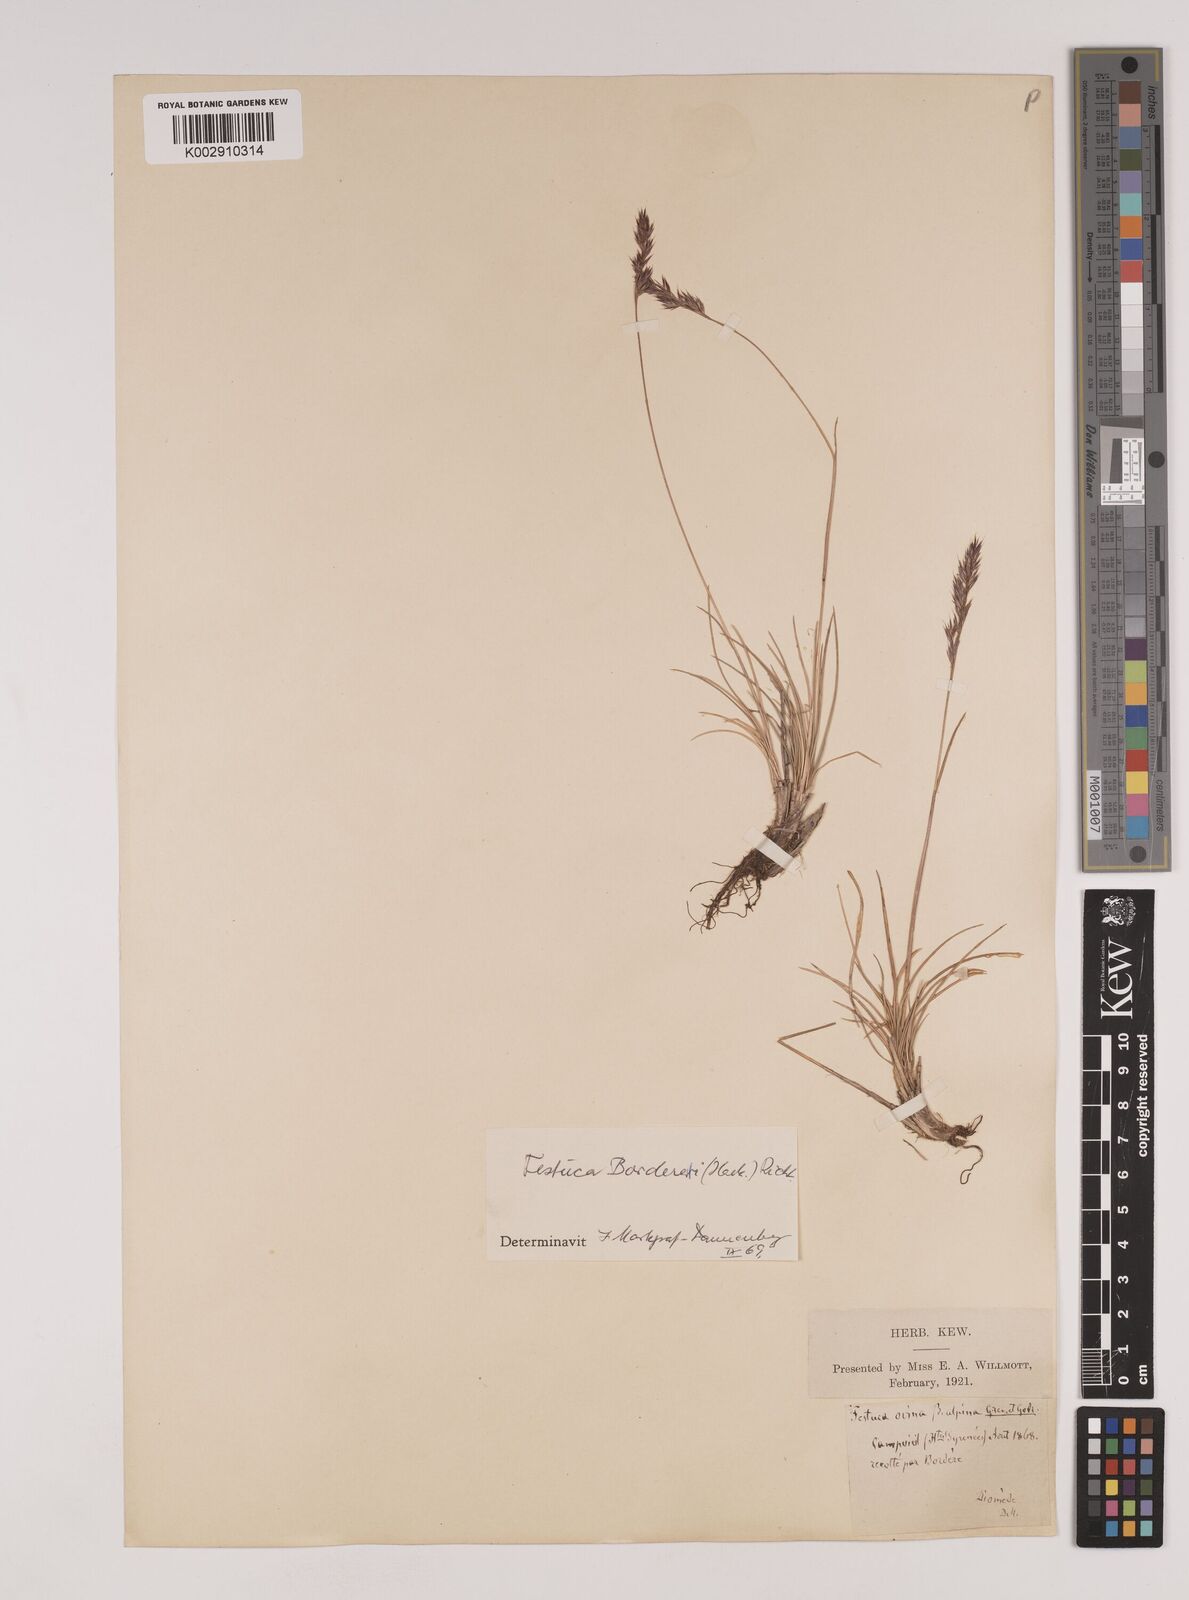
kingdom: Plantae
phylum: Tracheophyta
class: Liliopsida
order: Poales
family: Poaceae
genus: Festuca
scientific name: Festuca borderei
